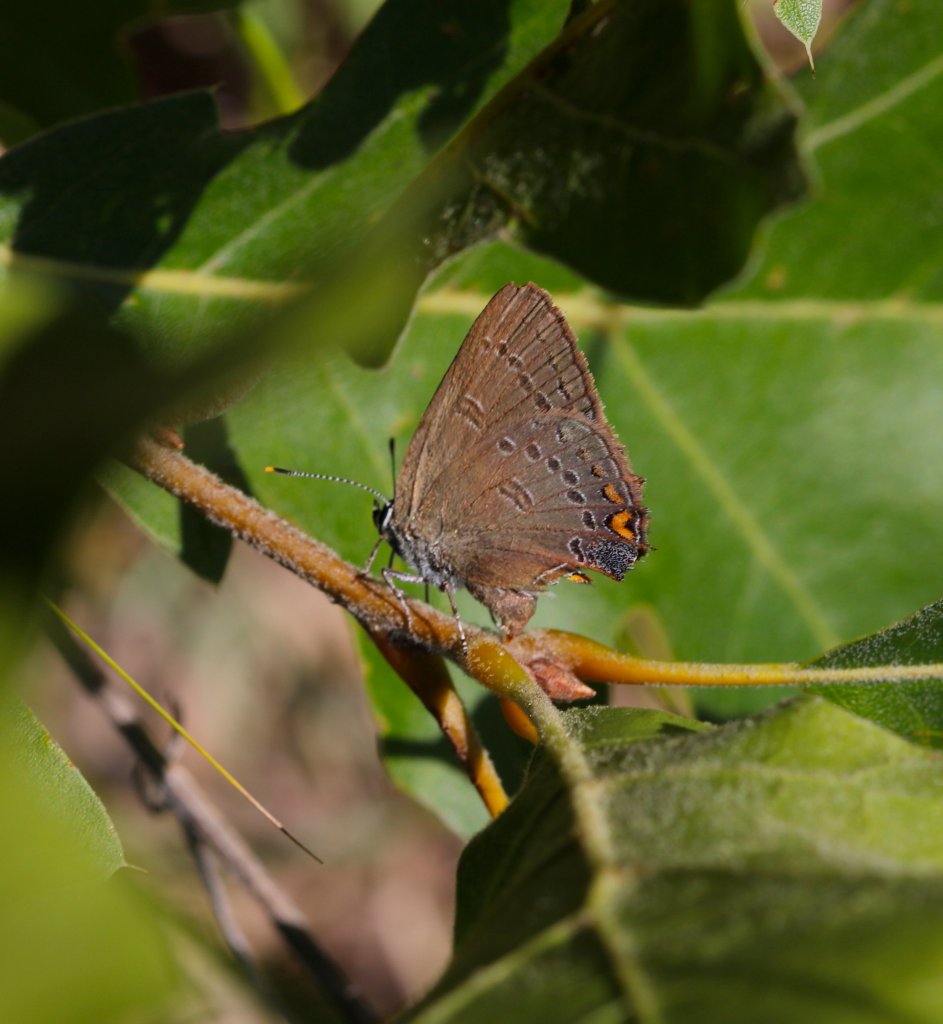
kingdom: Animalia
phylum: Arthropoda
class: Insecta
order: Lepidoptera
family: Lycaenidae
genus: Satyrium
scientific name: Satyrium edwardsii
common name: Edwards' Hairstreak
